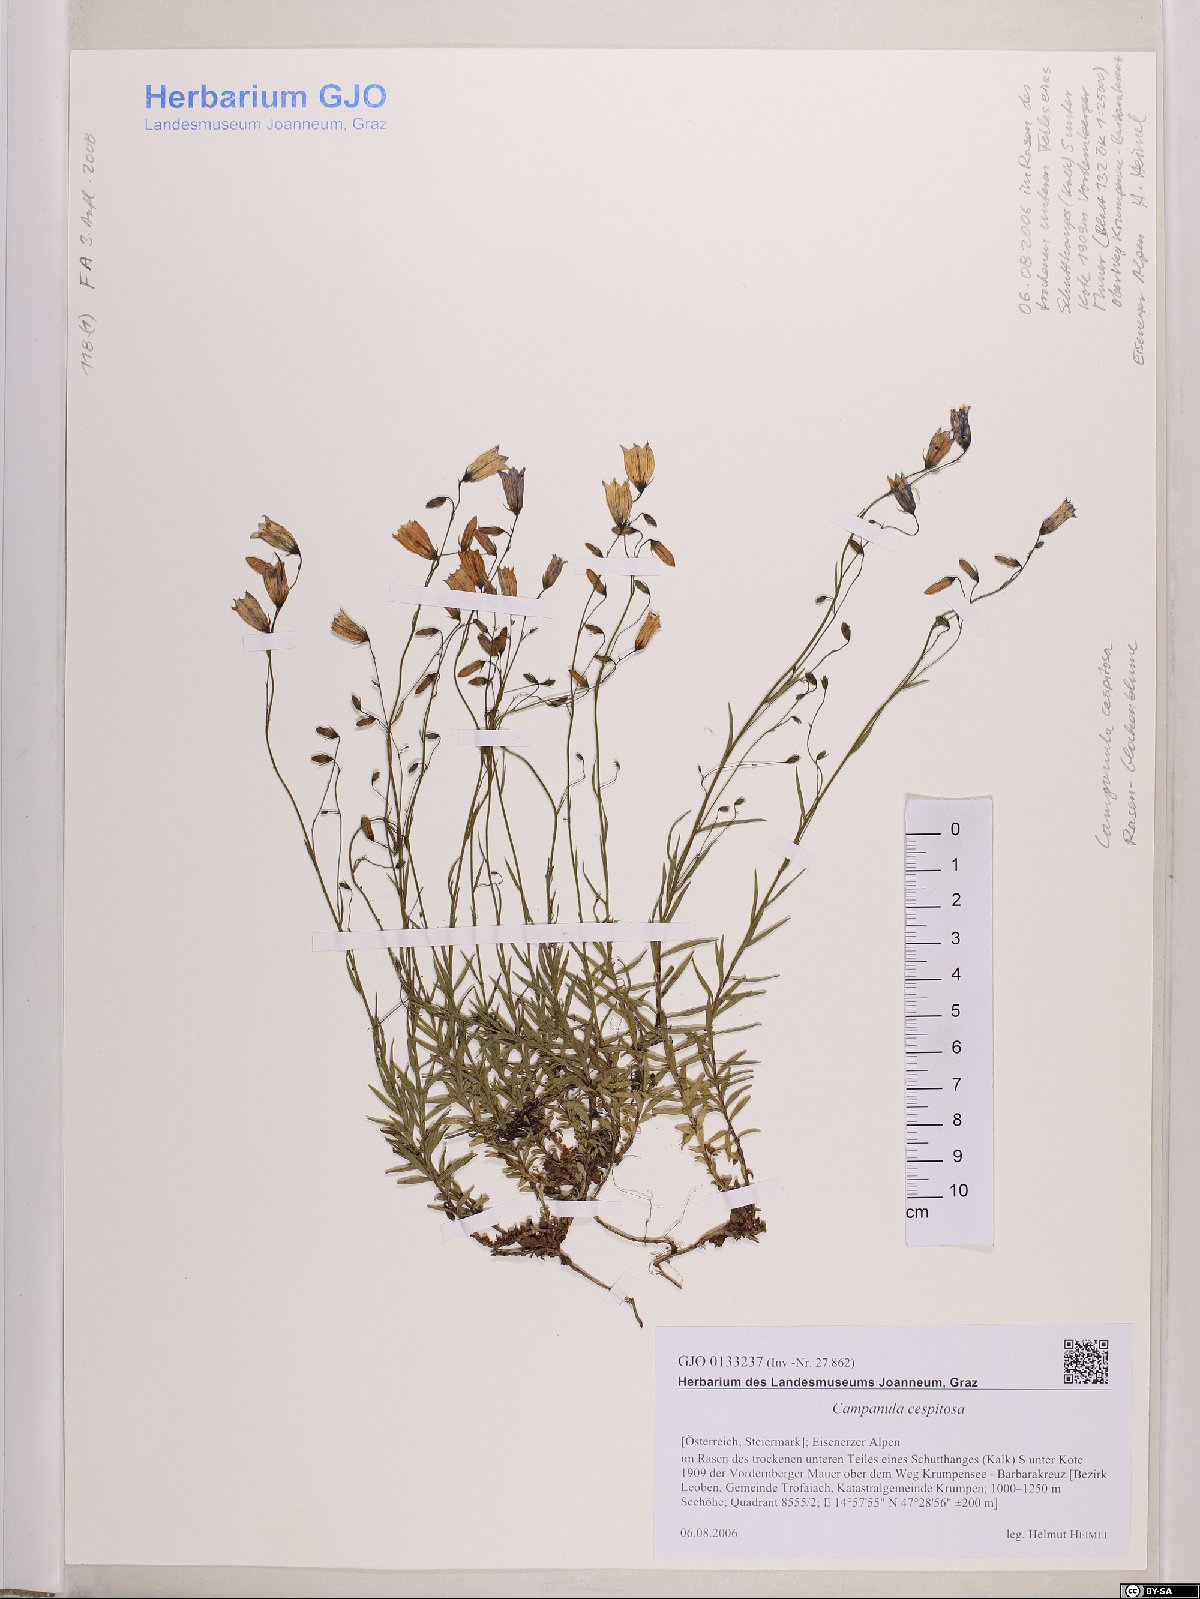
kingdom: Plantae
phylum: Tracheophyta
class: Magnoliopsida
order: Asterales
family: Campanulaceae
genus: Campanula
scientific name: Campanula cespitosa
